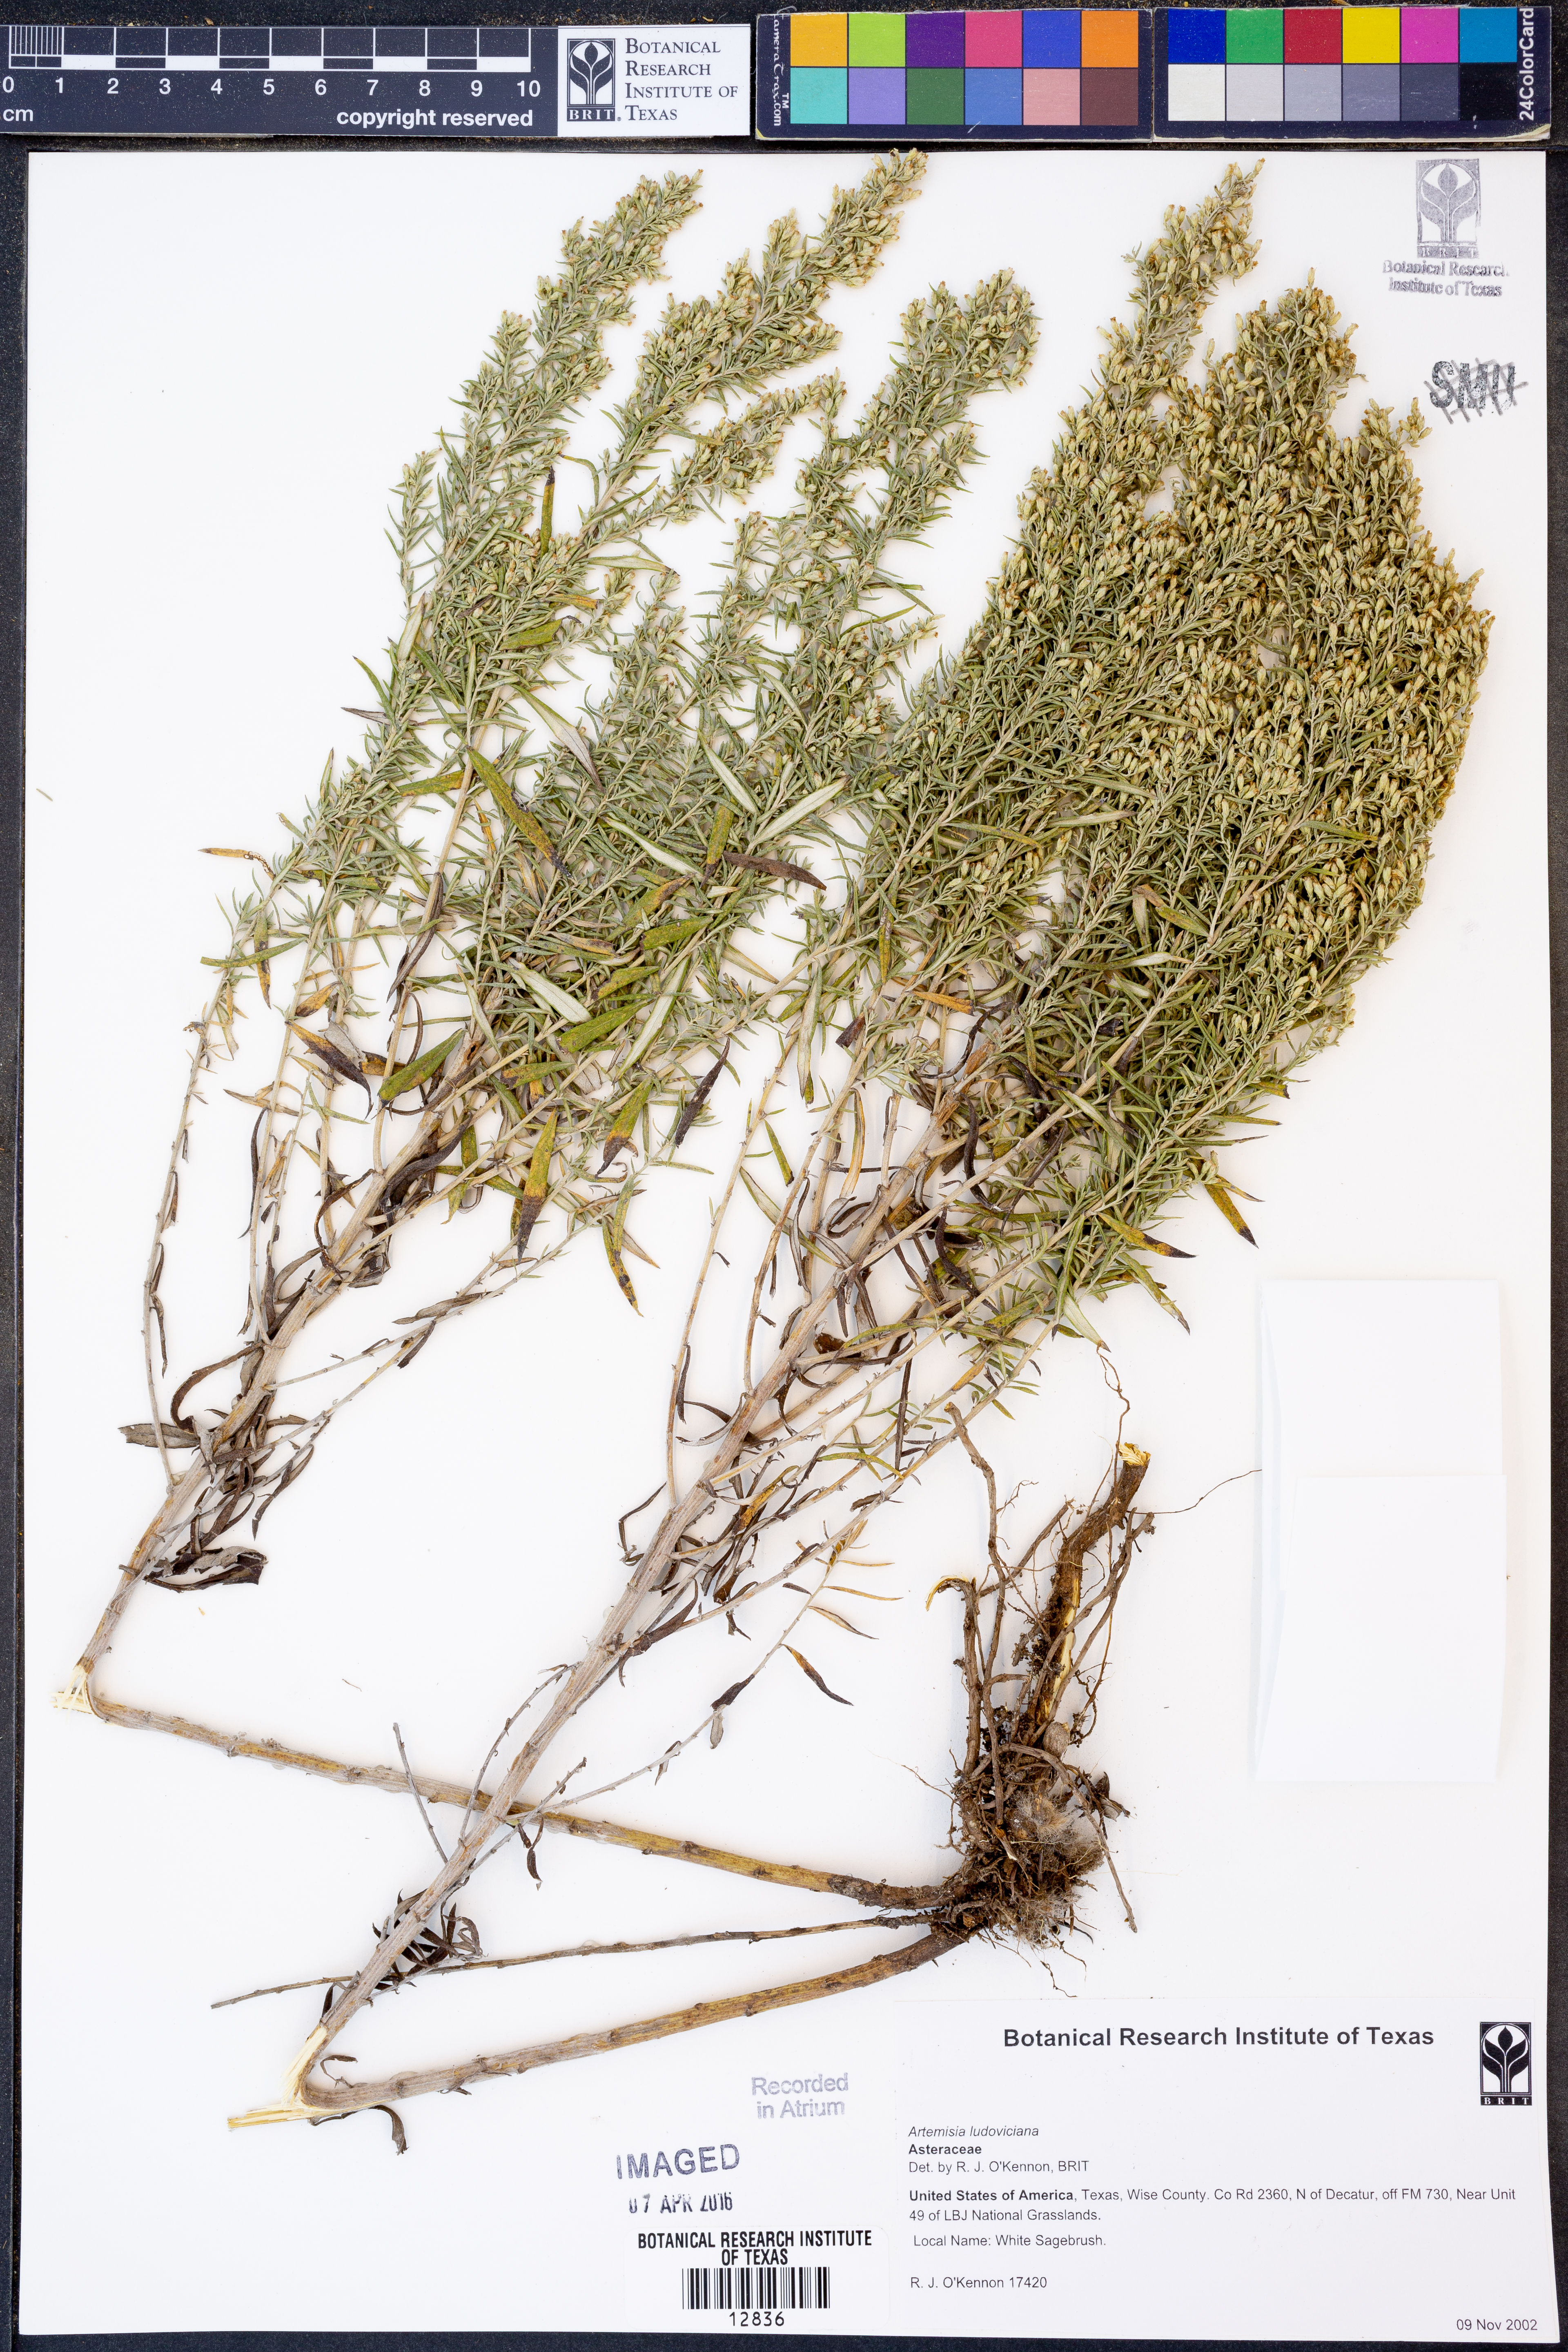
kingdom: Plantae
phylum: Tracheophyta
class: Magnoliopsida
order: Asterales
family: Asteraceae
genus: Artemisia
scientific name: Artemisia ludoviciana
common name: Western mugwort
